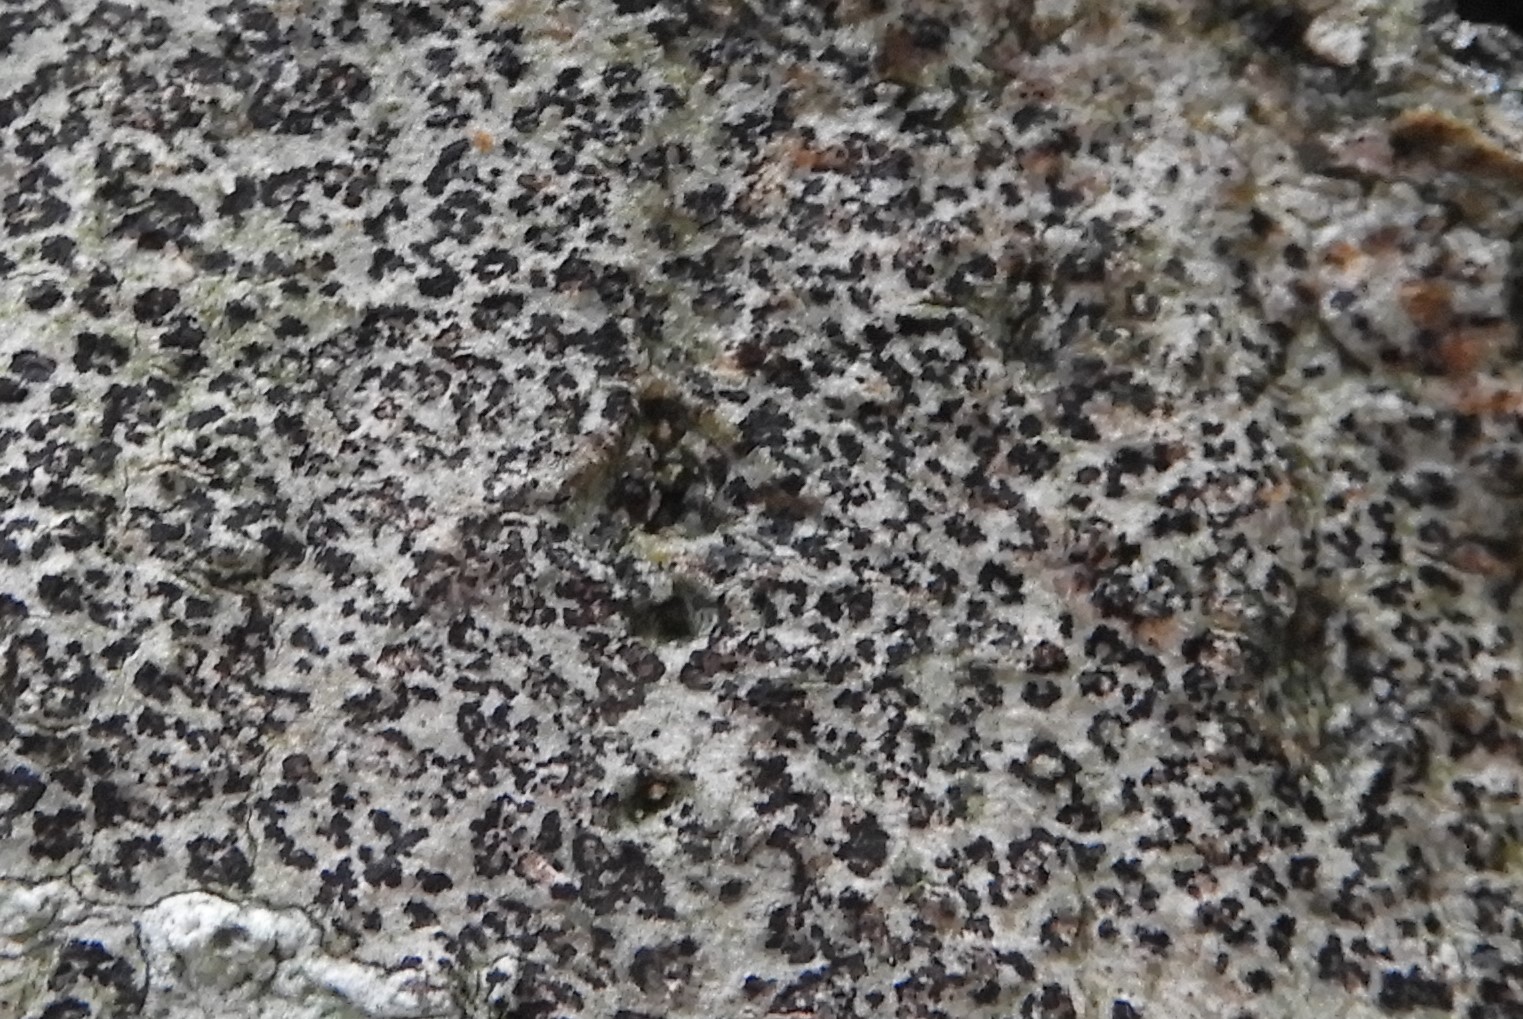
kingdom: Fungi
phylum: Ascomycota
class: Arthoniomycetes
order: Arthoniales
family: Arthoniaceae
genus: Arthonia
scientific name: Arthonia radiata
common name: stjerne-pletlav
